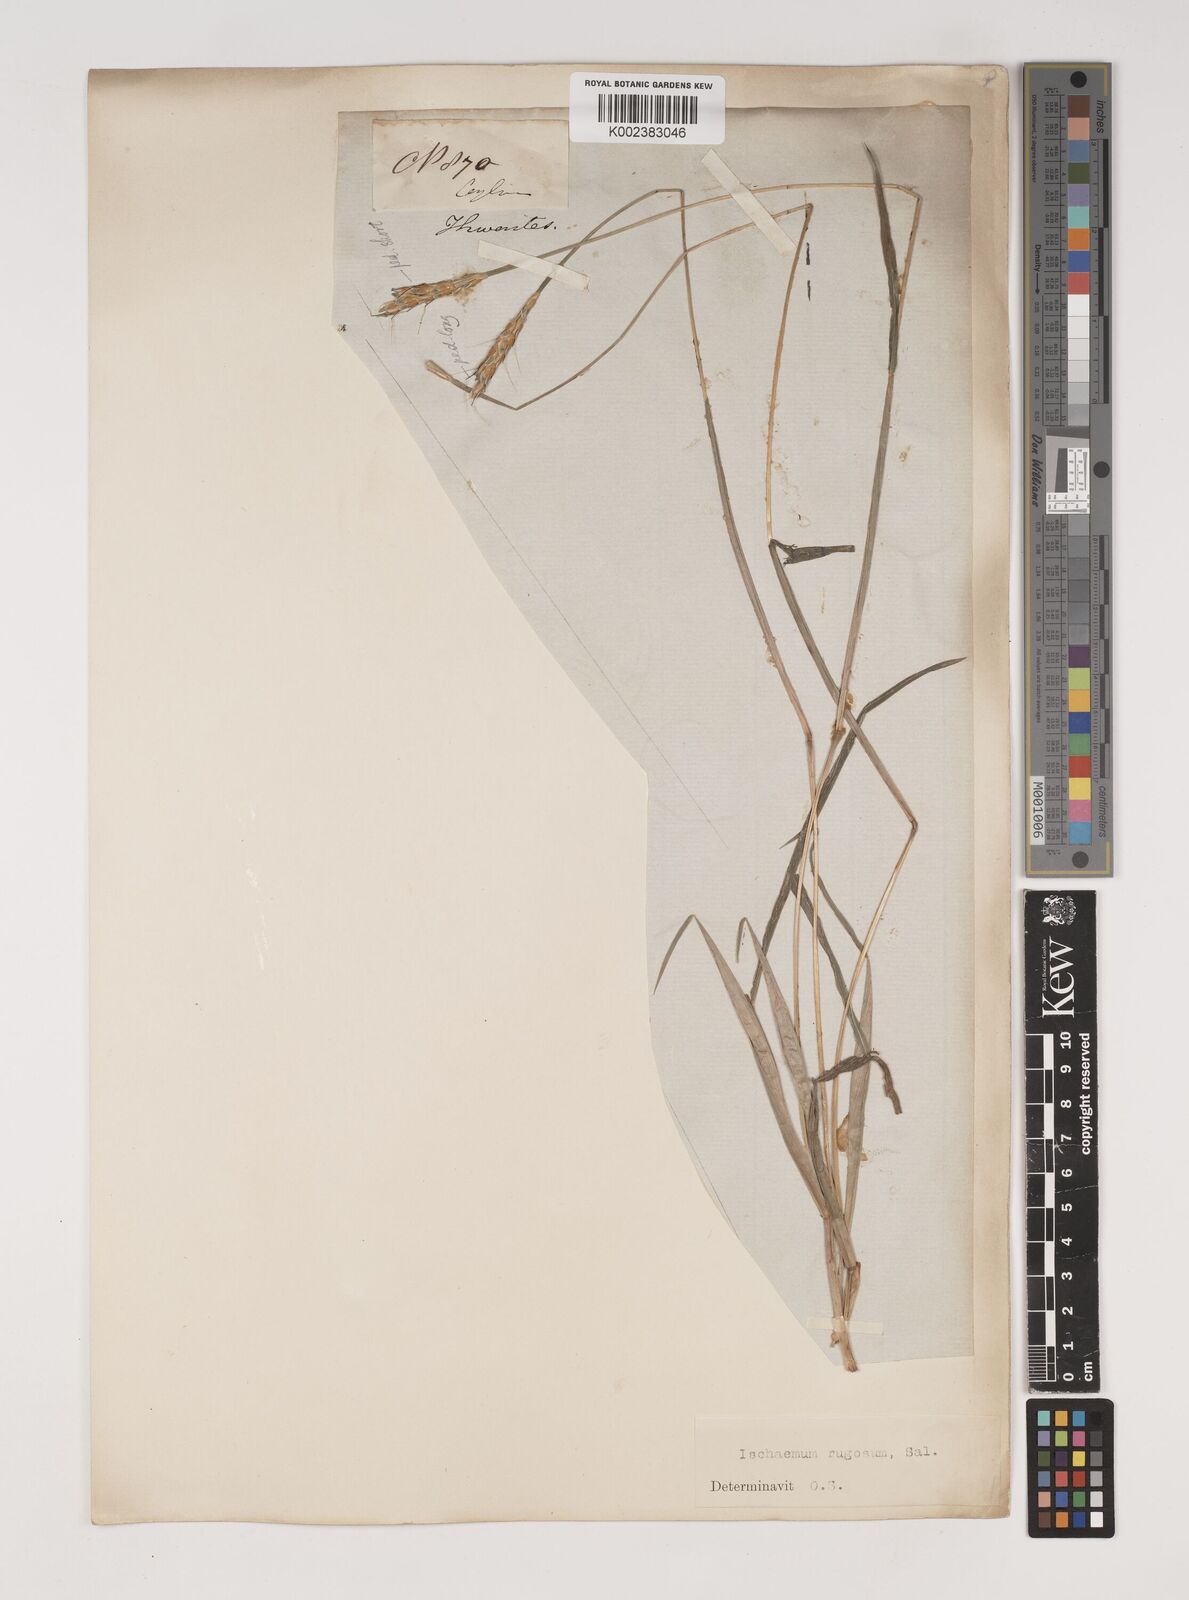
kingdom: Plantae
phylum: Tracheophyta
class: Liliopsida
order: Poales
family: Poaceae
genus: Ischaemum
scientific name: Ischaemum rugosum
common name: Saramatta grass
